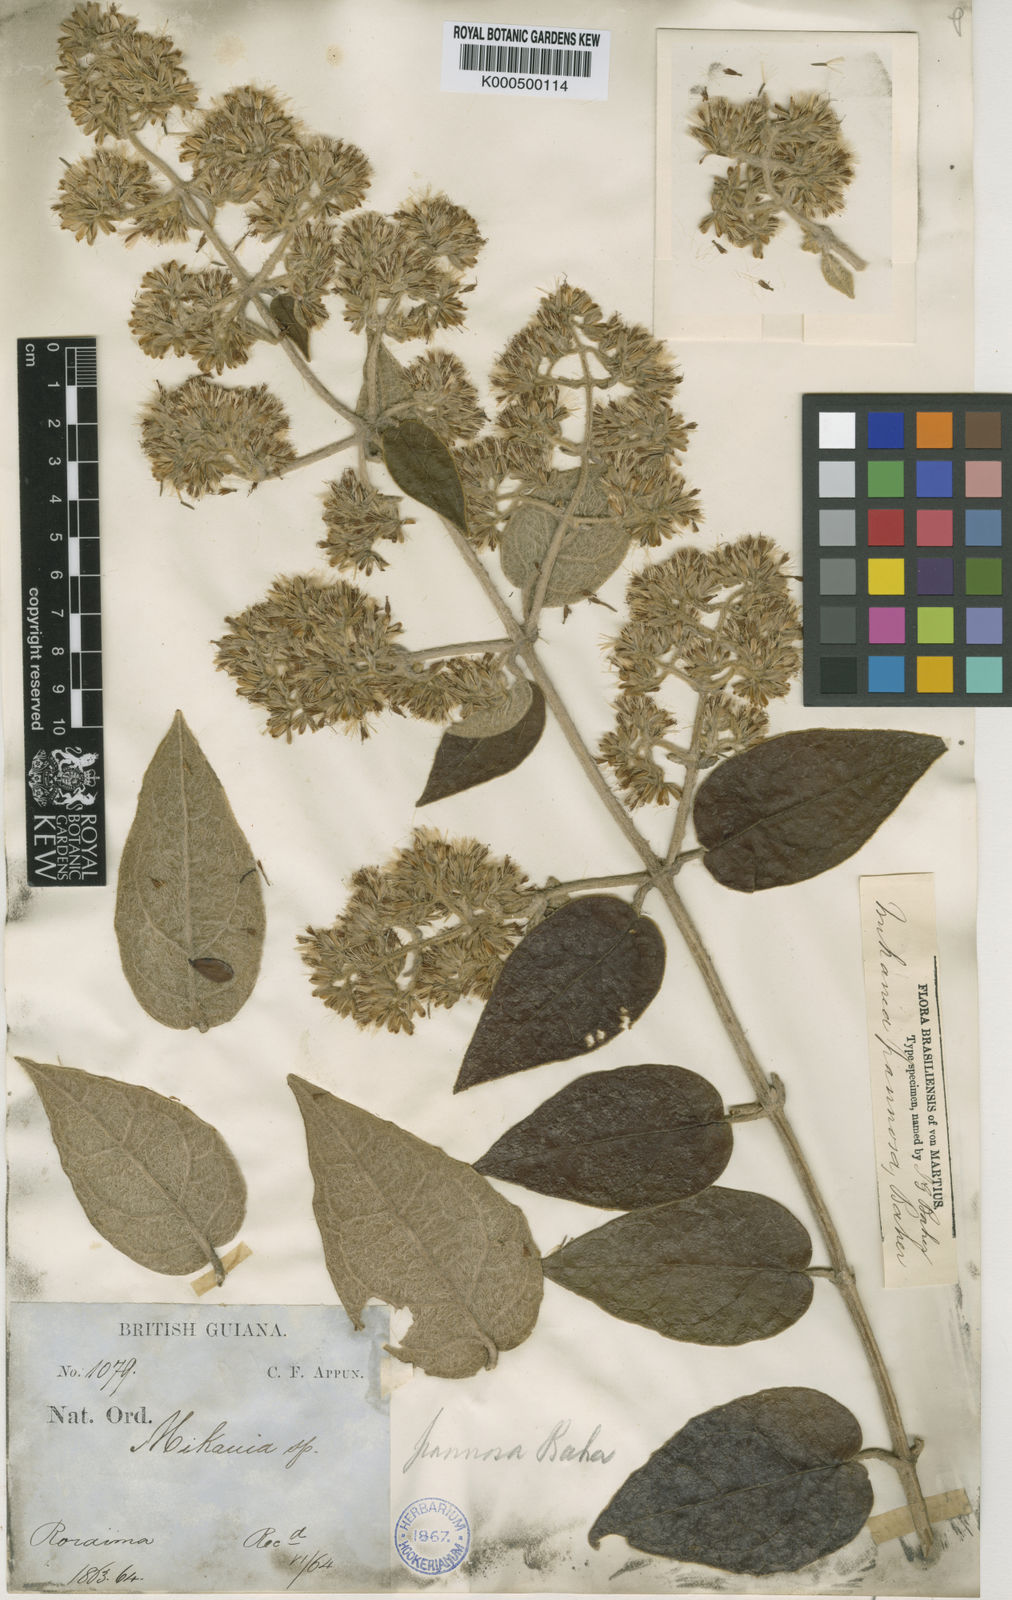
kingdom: Plantae
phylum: Tracheophyta
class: Magnoliopsida
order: Asterales
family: Asteraceae
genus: Mikania
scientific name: Mikania pannosa
